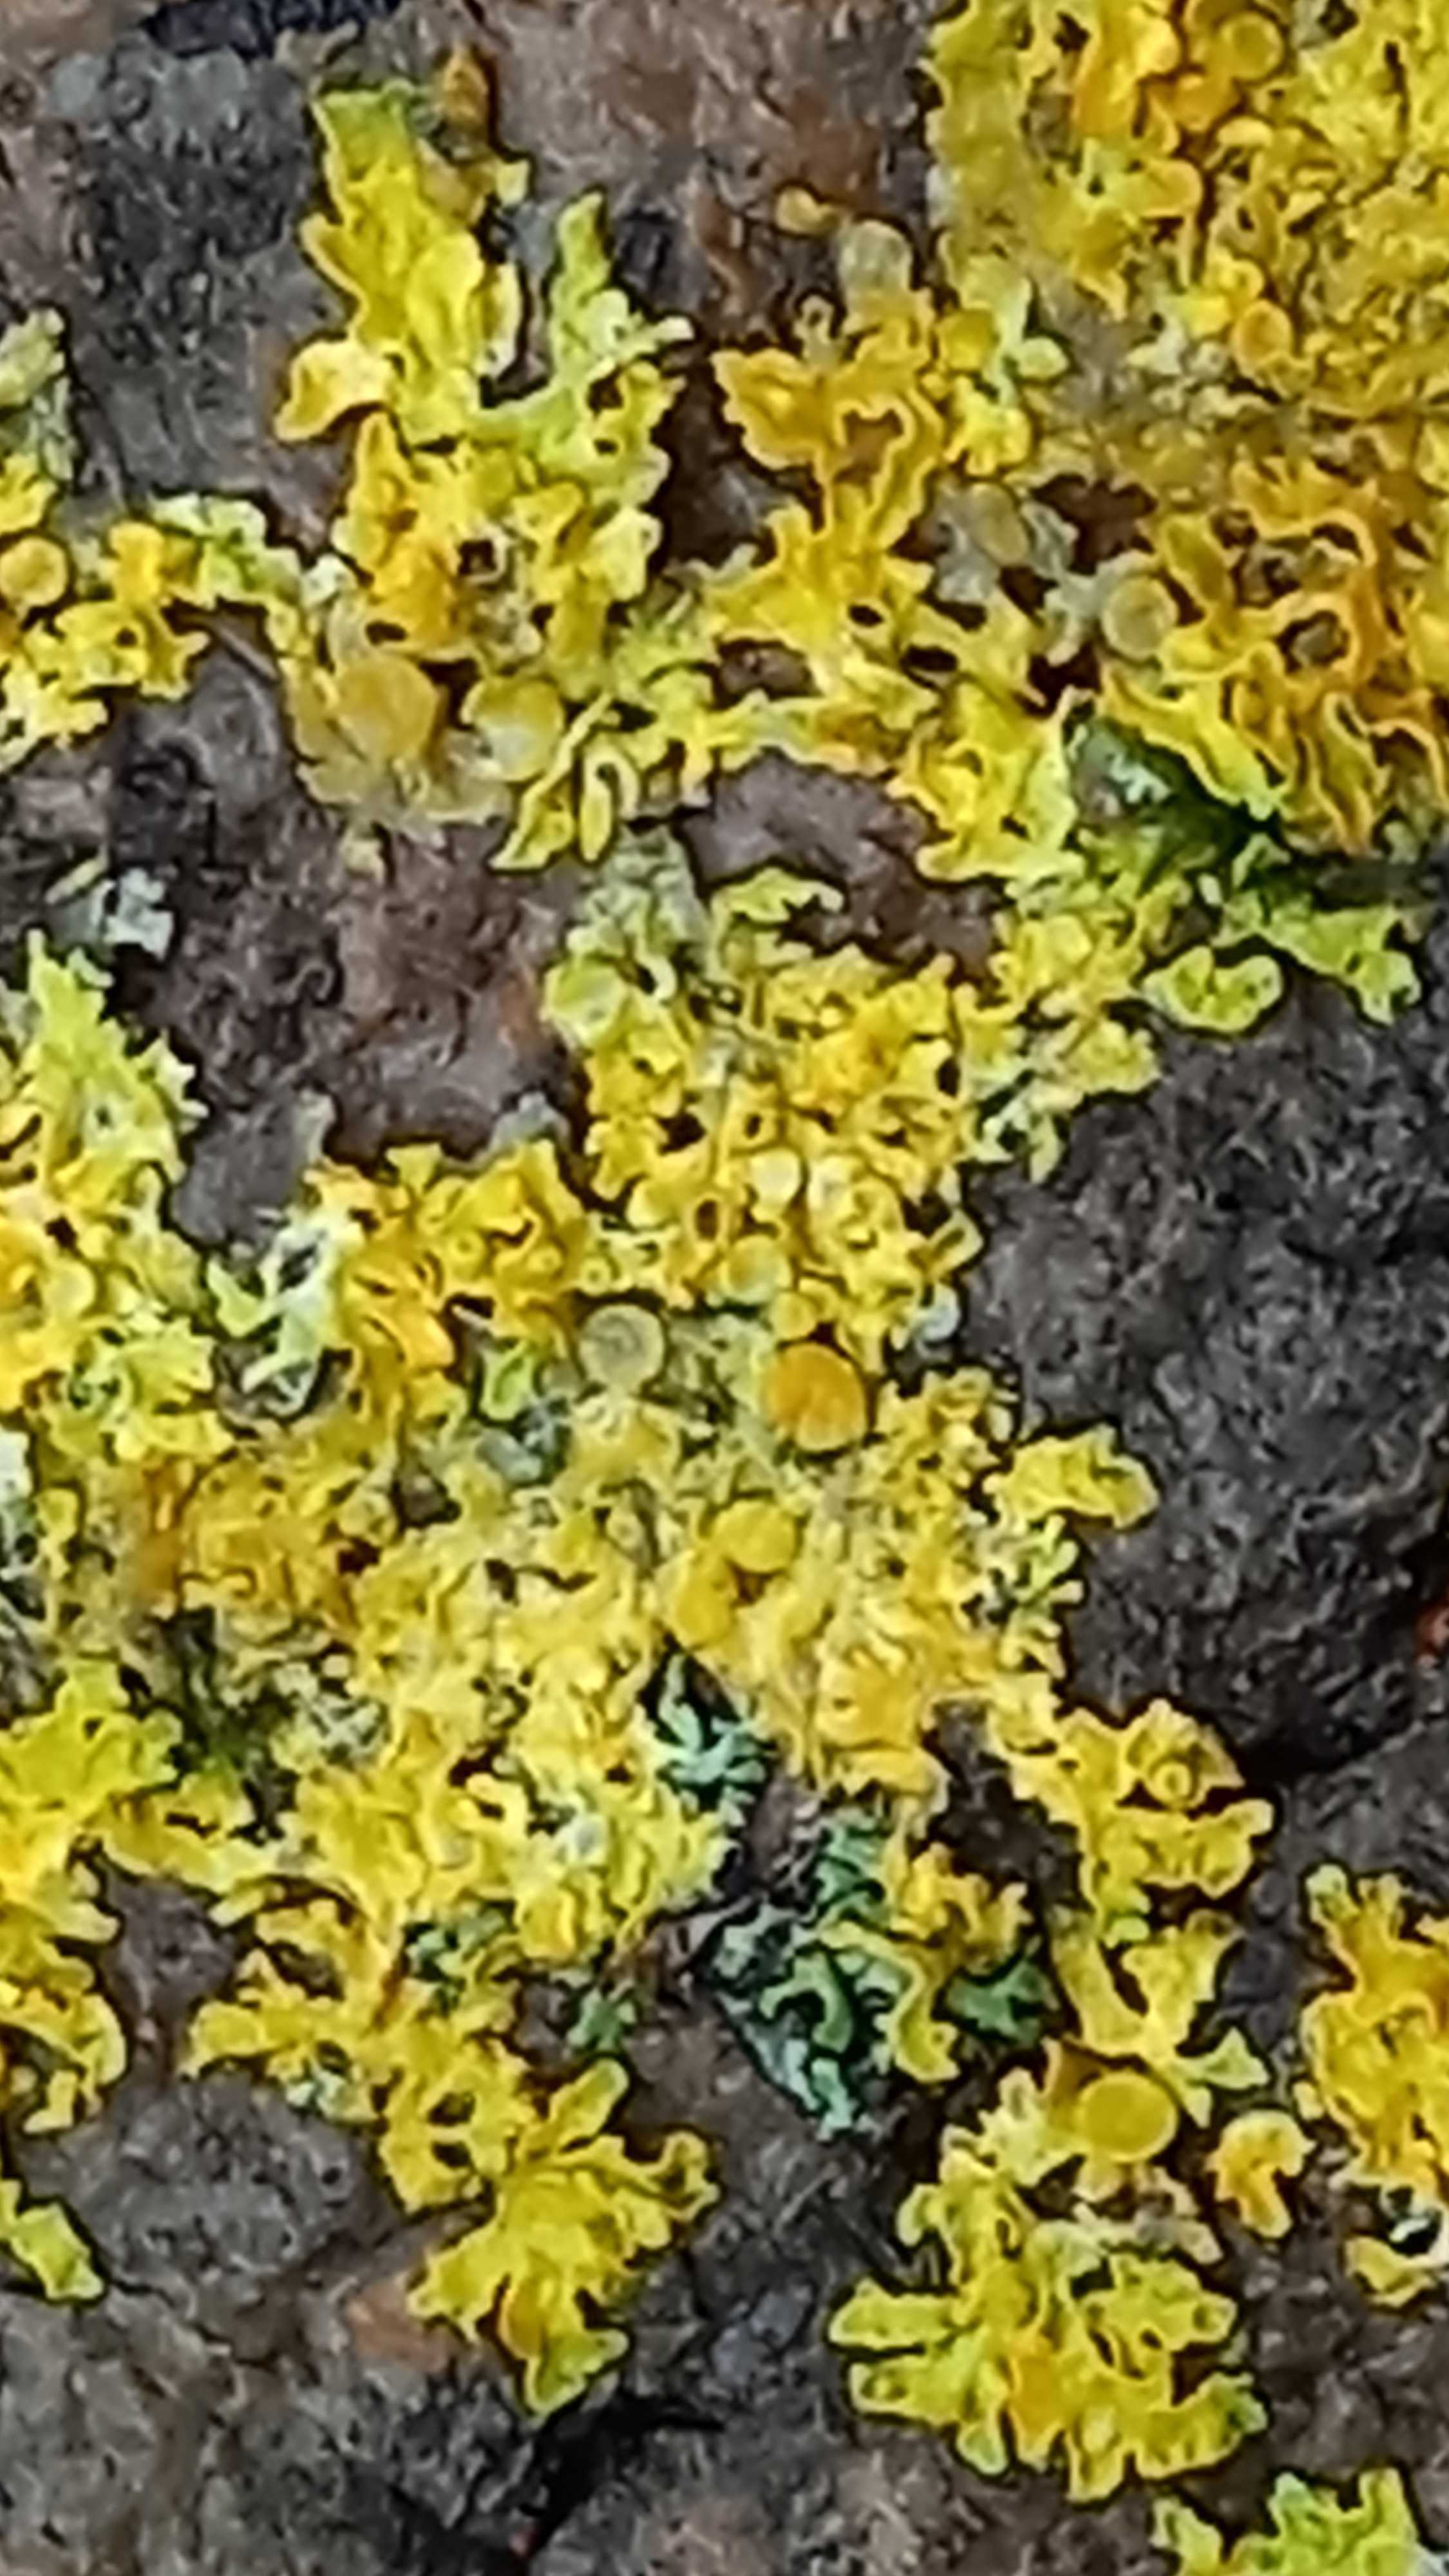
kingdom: Fungi
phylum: Ascomycota
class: Lecanoromycetes
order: Teloschistales
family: Teloschistaceae
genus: Xanthoria
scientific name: Xanthoria parietina
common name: almindelig væggelav
